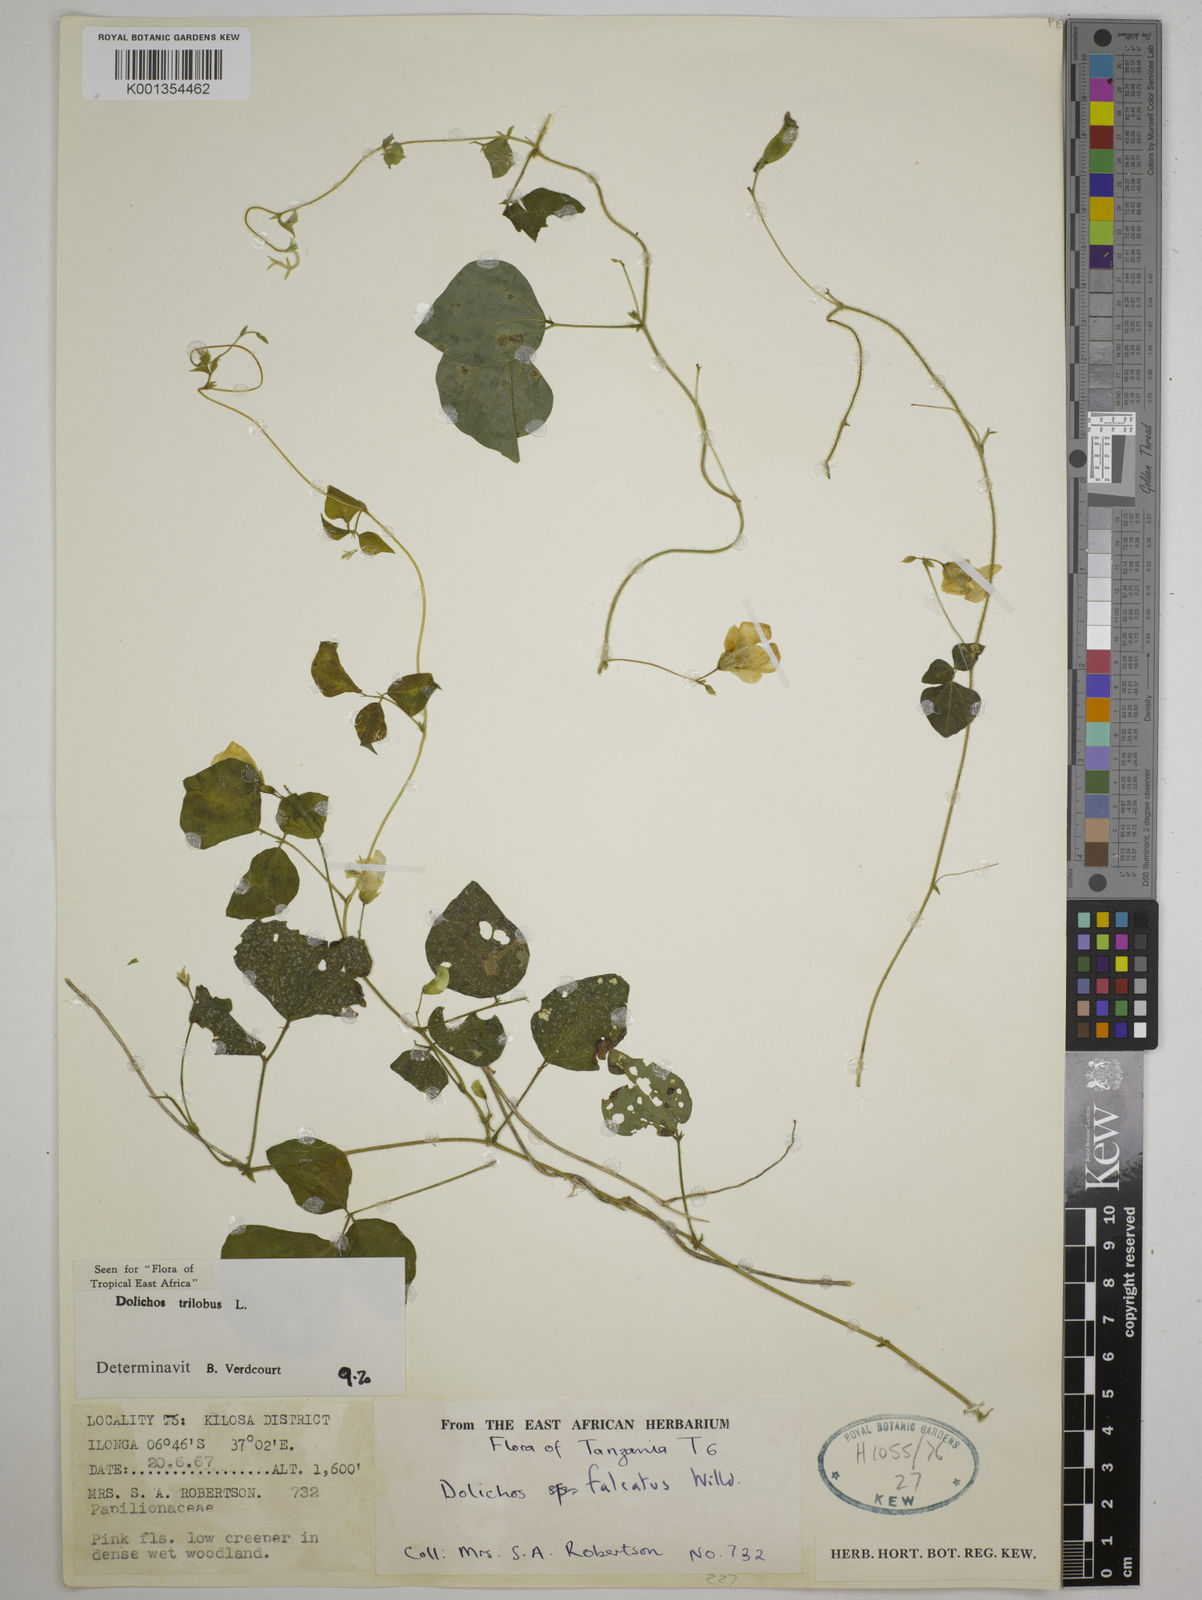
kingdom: Plantae
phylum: Tracheophyta
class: Magnoliopsida
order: Fabales
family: Fabaceae
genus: Dolichos
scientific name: Dolichos
